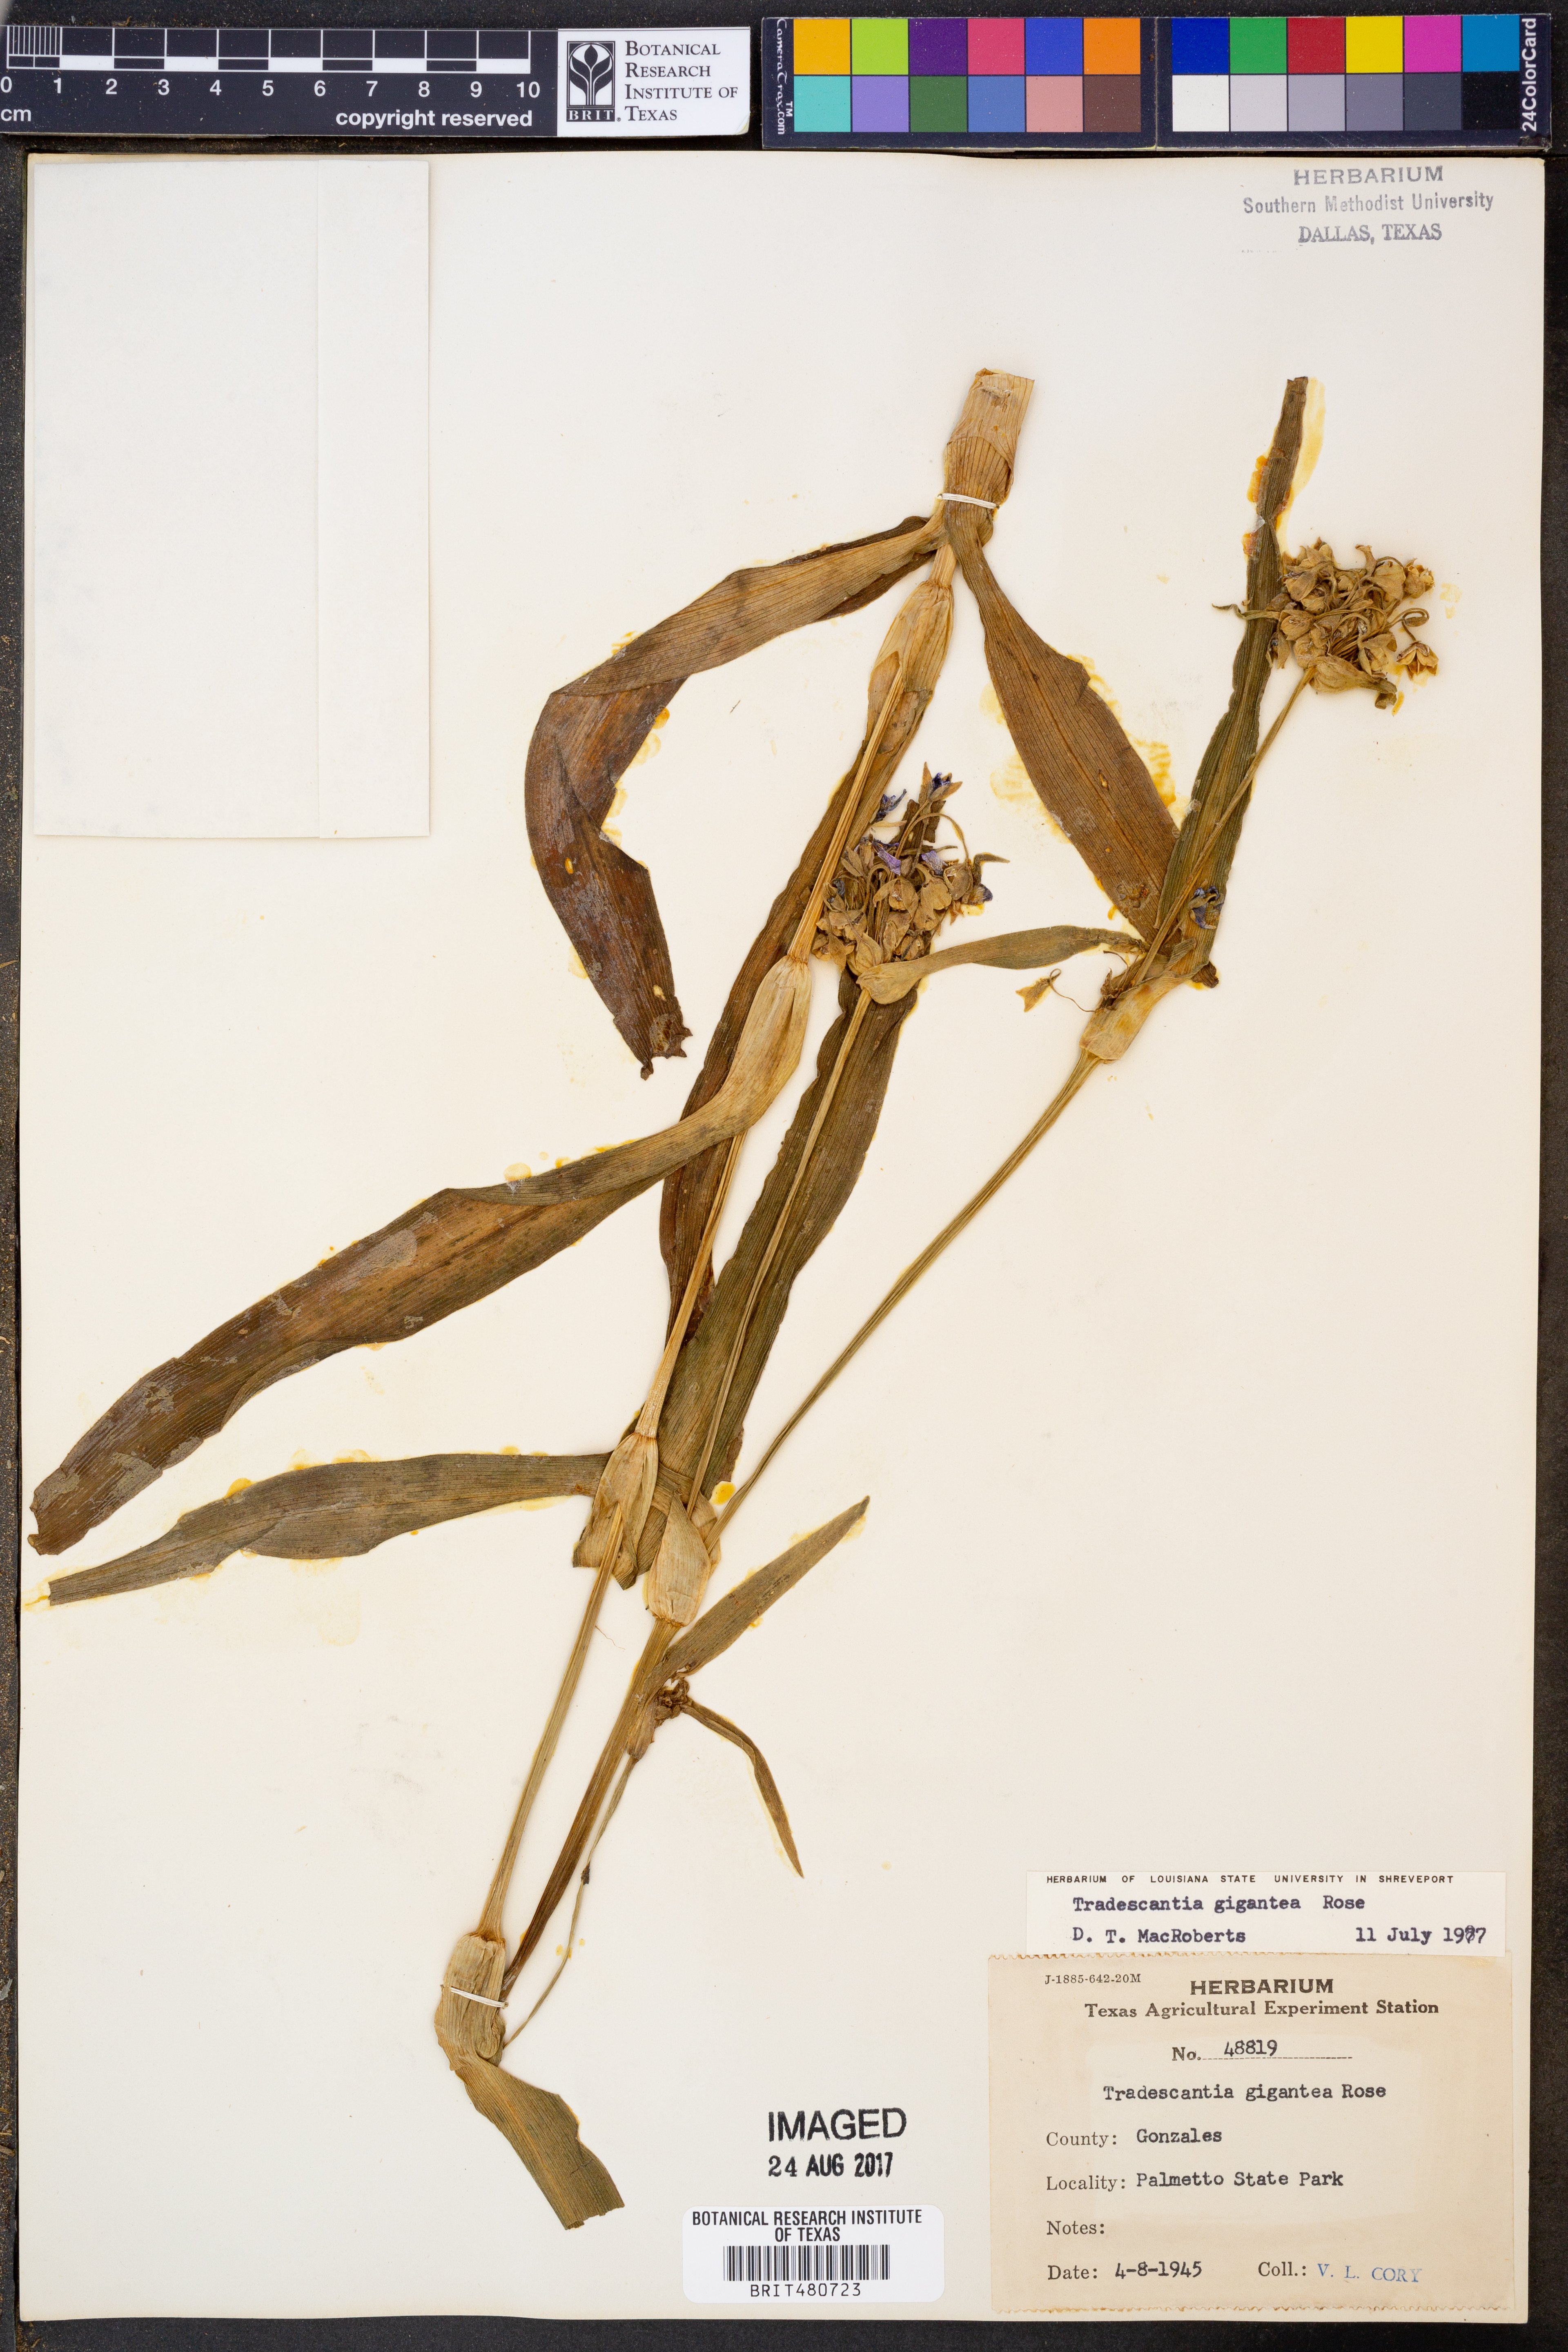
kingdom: Plantae
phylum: Tracheophyta
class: Liliopsida
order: Commelinales
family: Commelinaceae
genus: Tradescantia
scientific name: Tradescantia gigantea
